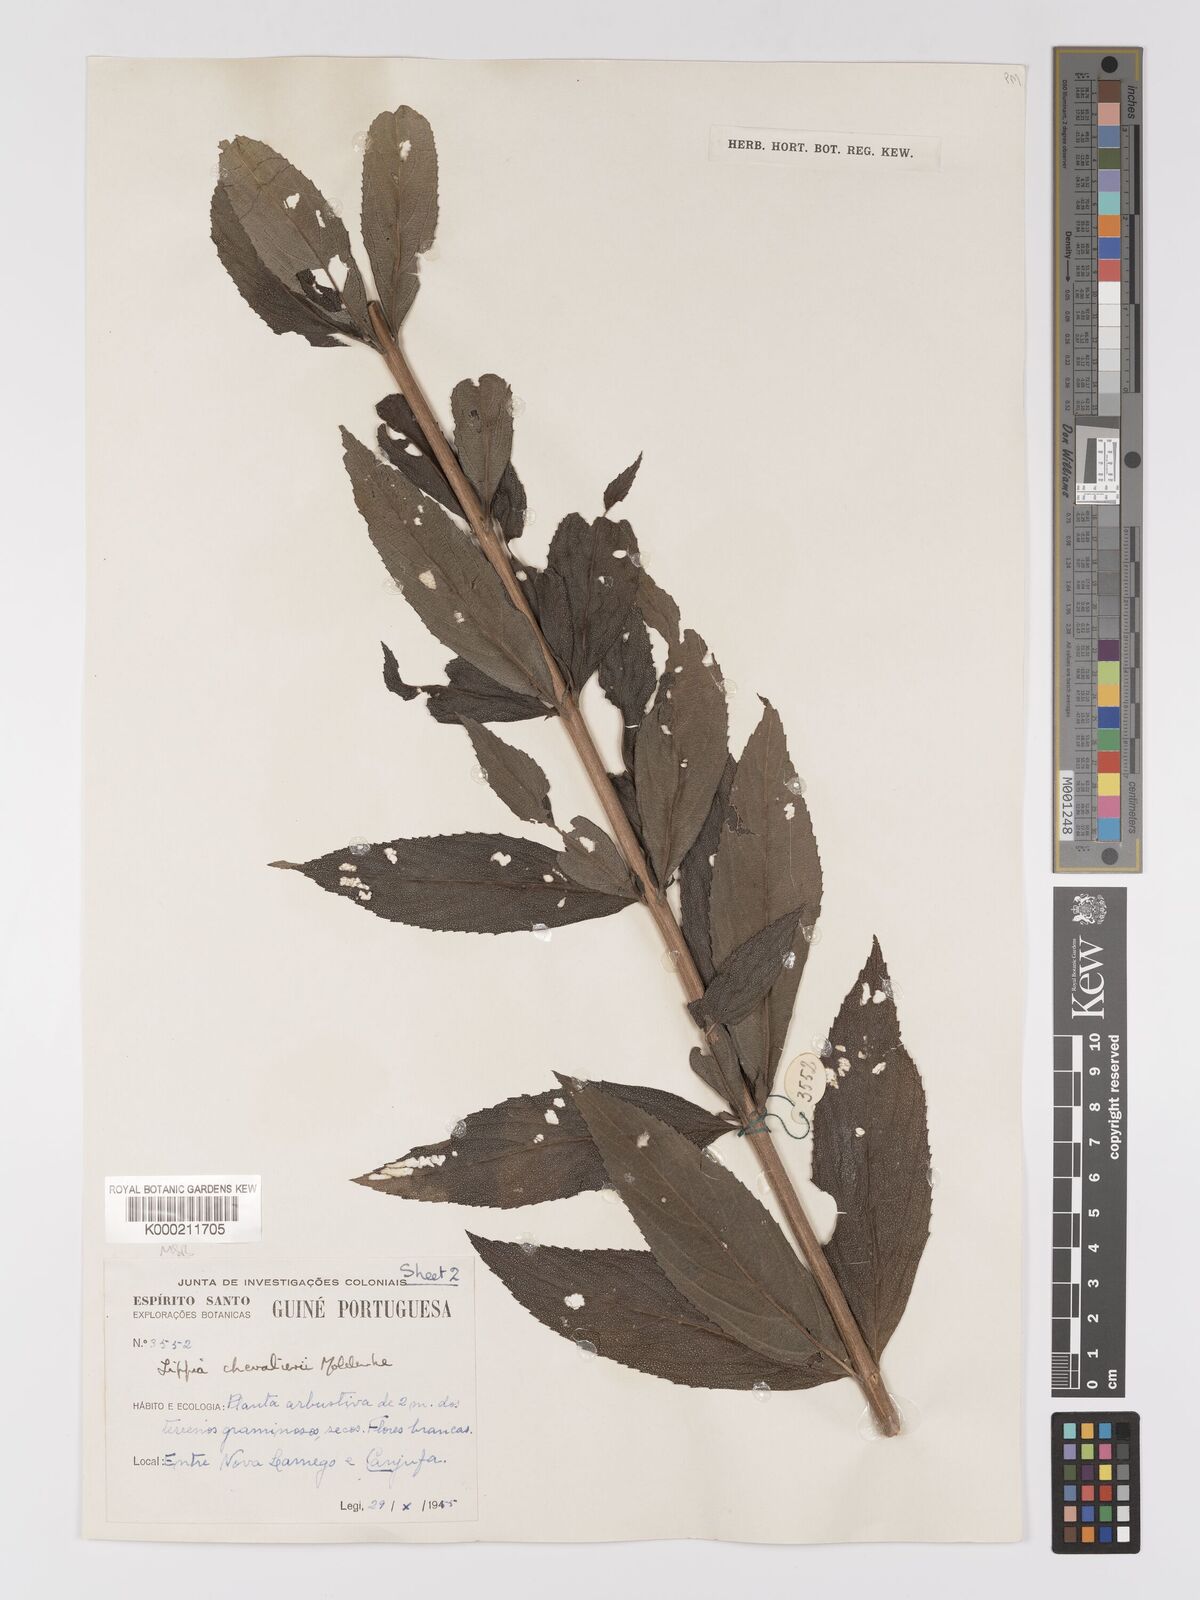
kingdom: Plantae
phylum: Tracheophyta
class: Magnoliopsida
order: Lamiales
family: Verbenaceae
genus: Lippia
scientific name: Lippia chevalieri
